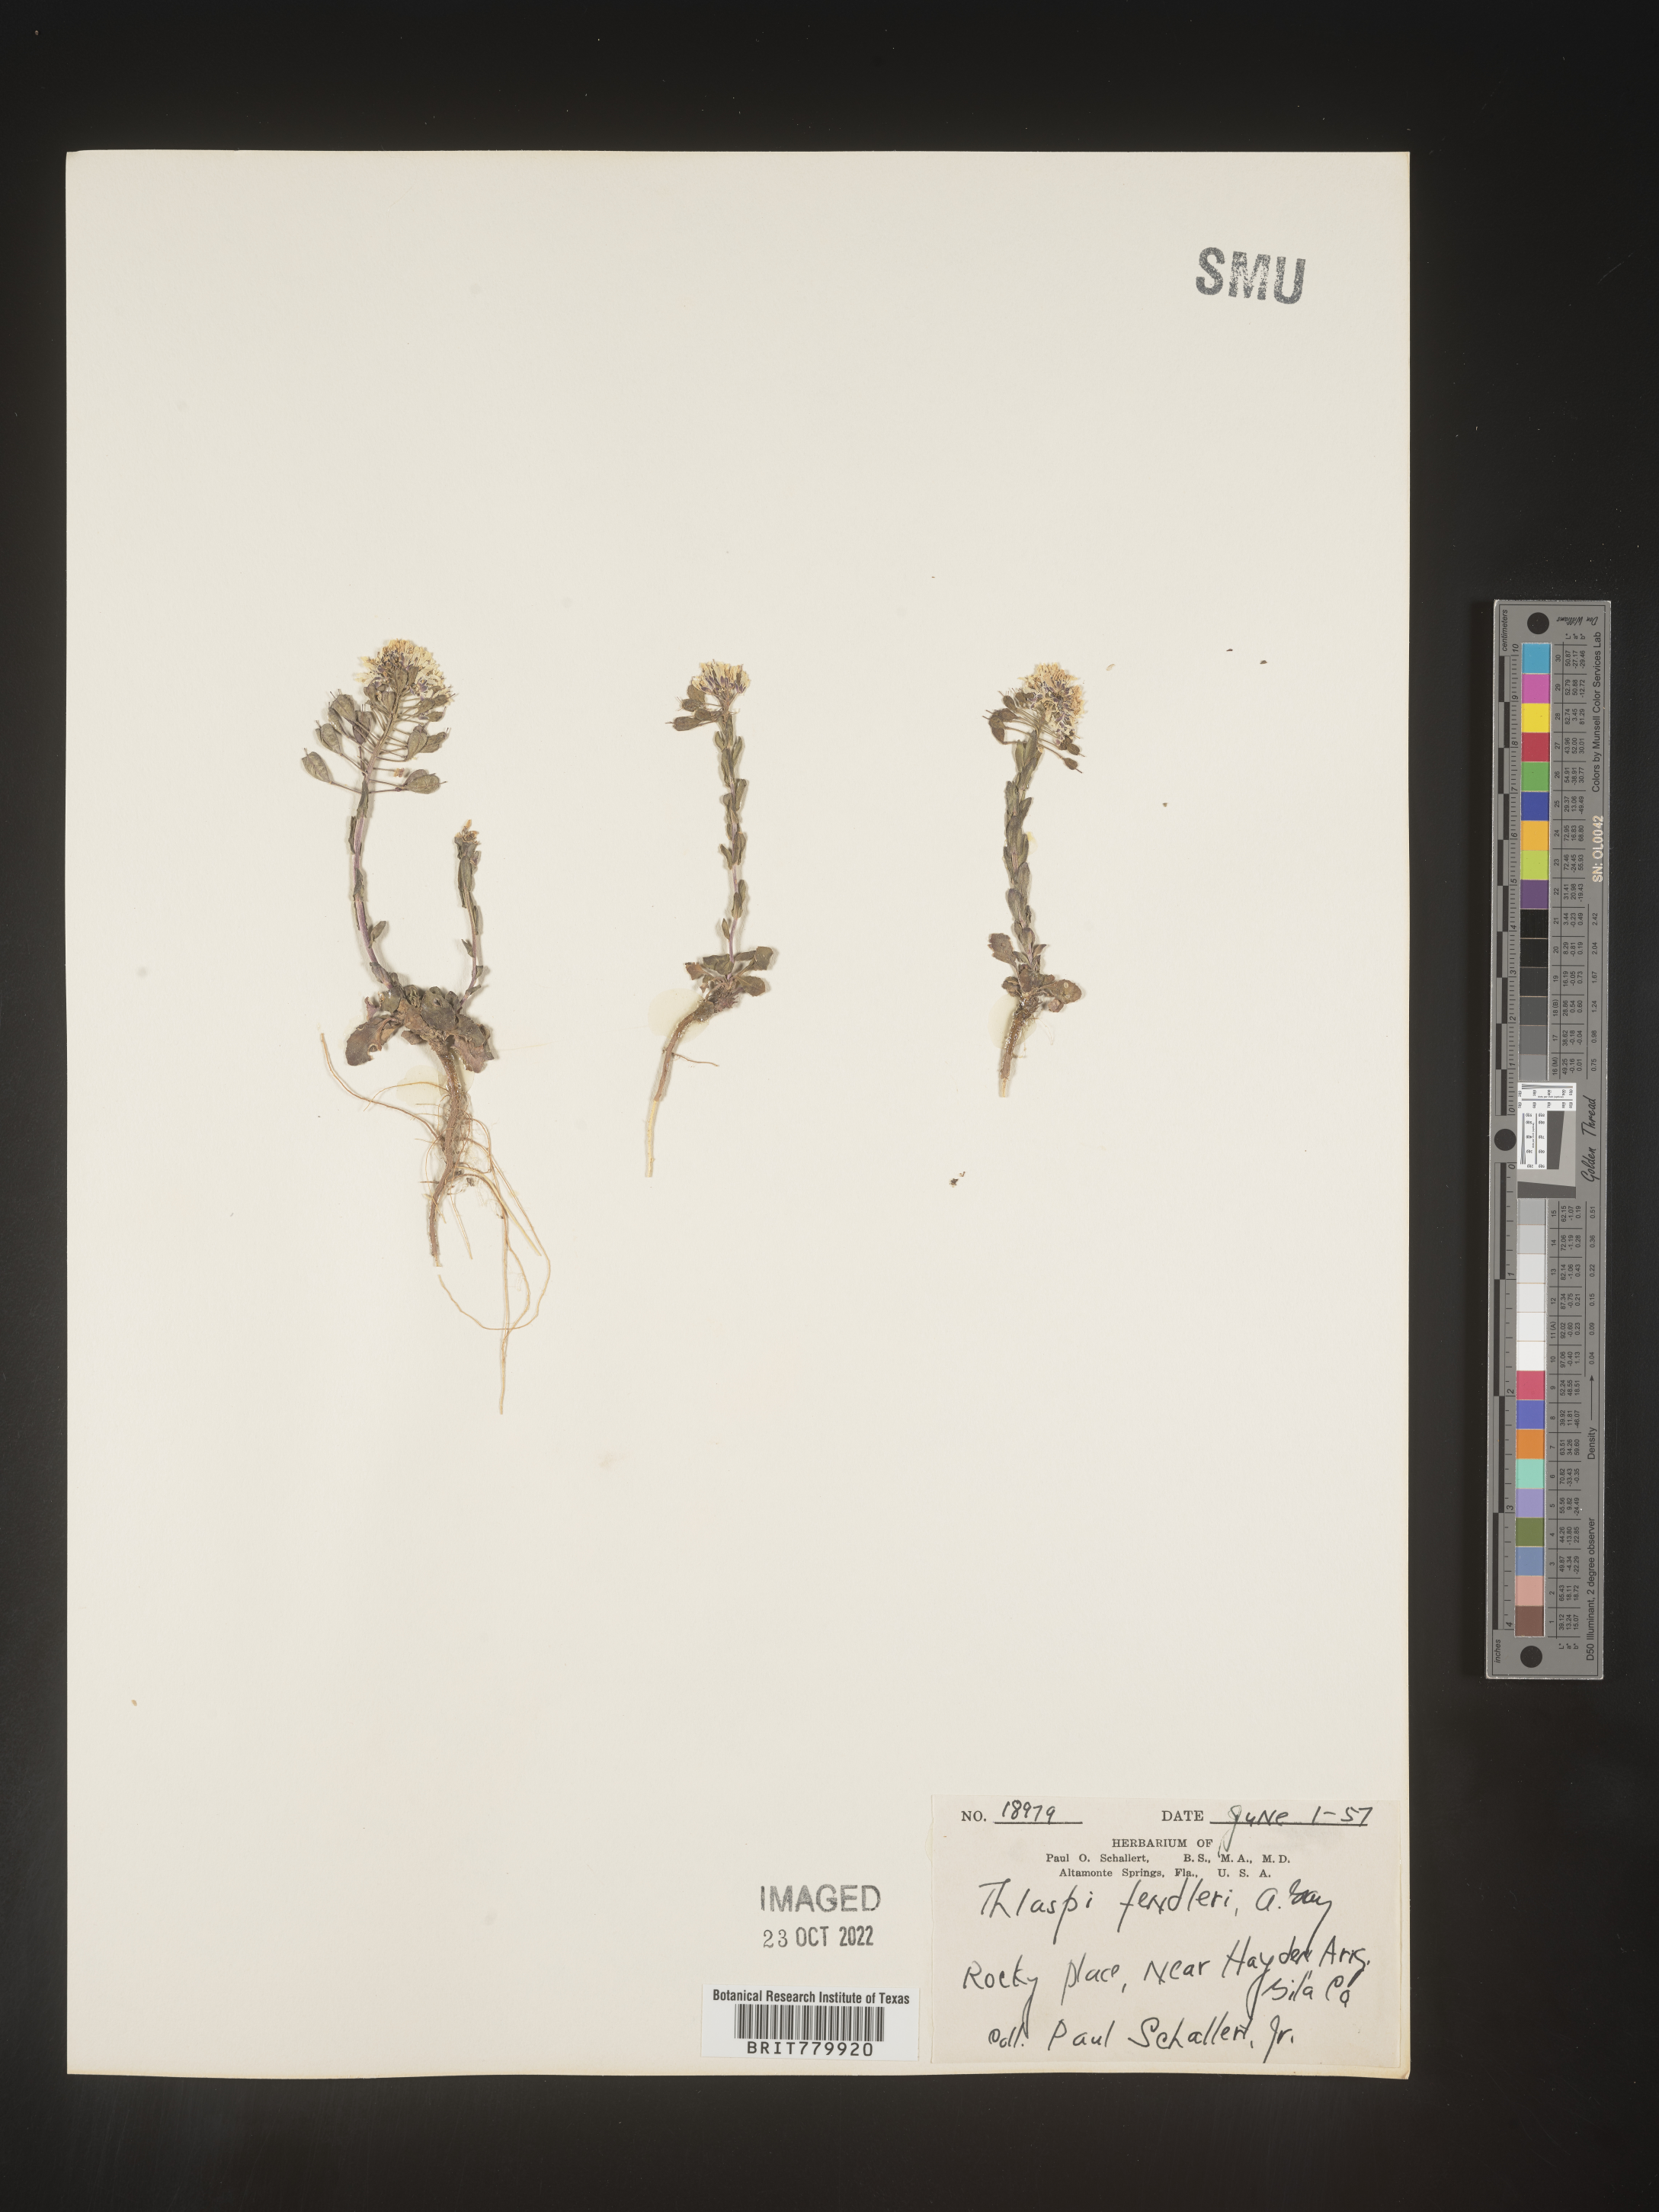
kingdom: Plantae
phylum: Tracheophyta
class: Magnoliopsida
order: Brassicales
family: Brassicaceae
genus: Thlaspi
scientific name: Thlaspi
